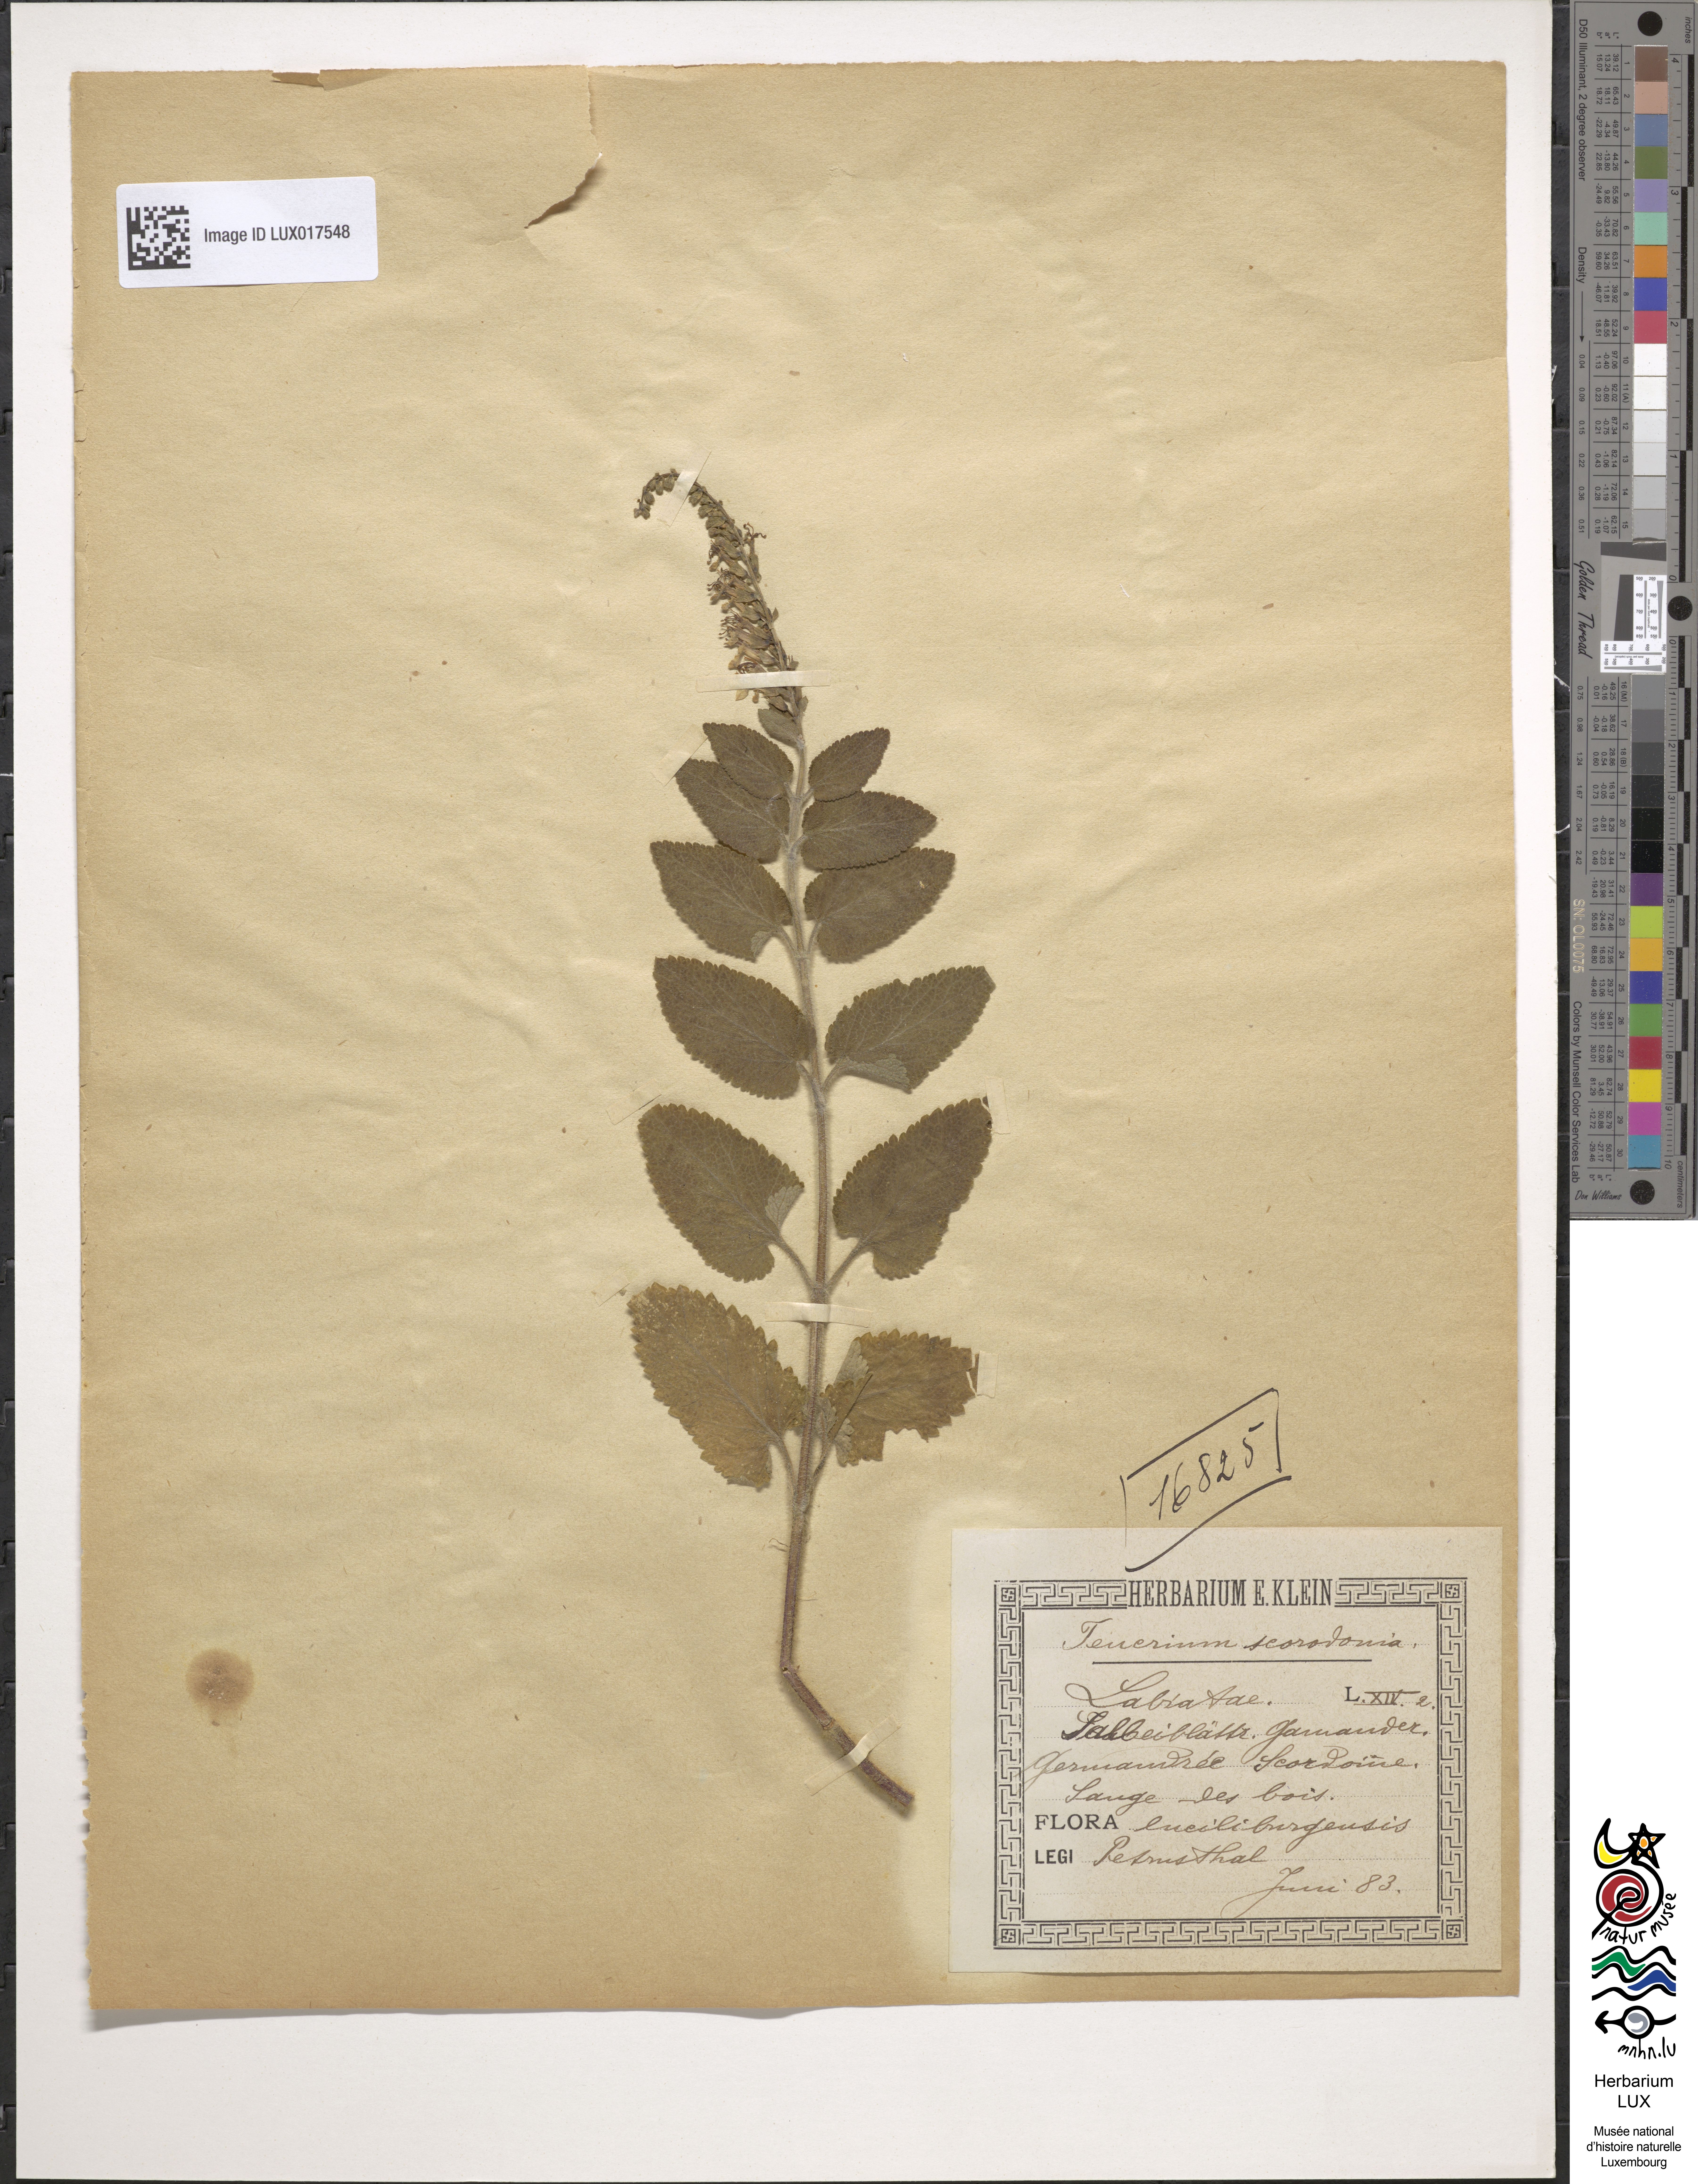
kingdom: Plantae
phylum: Tracheophyta
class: Magnoliopsida
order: Lamiales
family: Lamiaceae
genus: Teucrium
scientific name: Teucrium scorodonia
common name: Woodland germander
